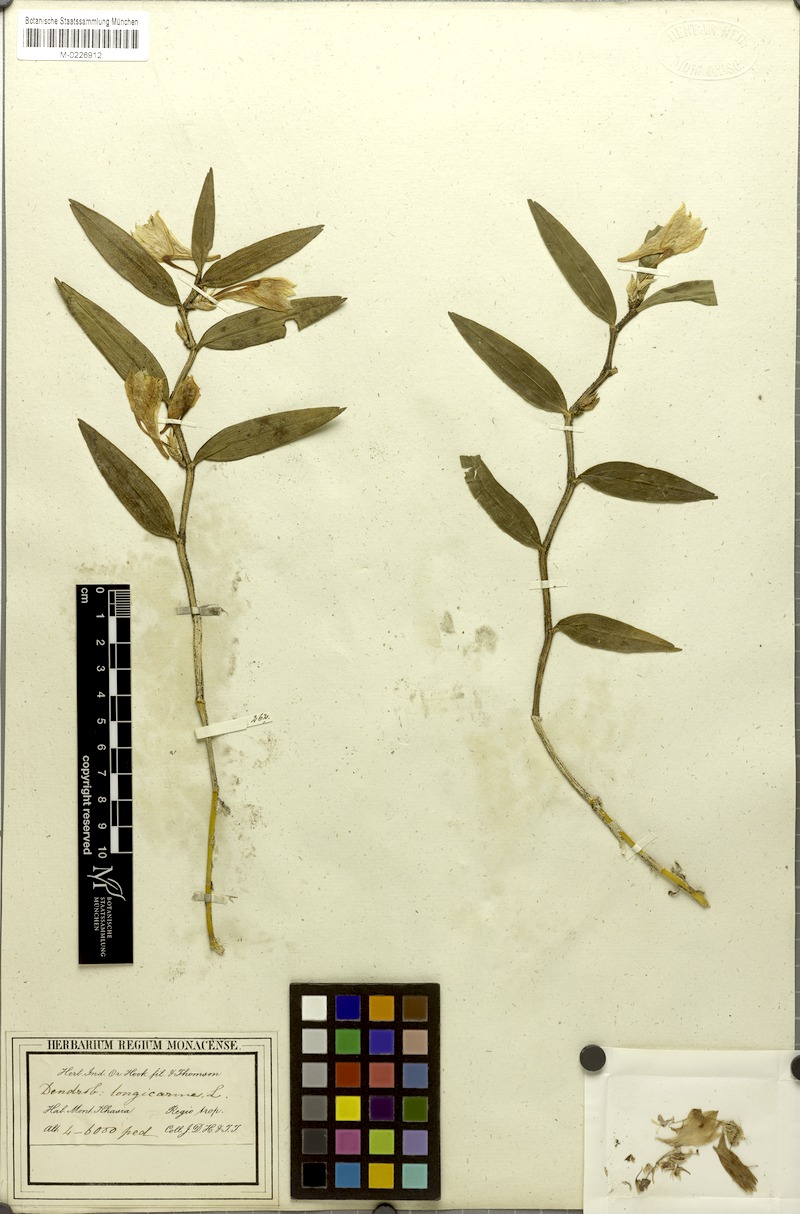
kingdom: Plantae
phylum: Tracheophyta
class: Liliopsida
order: Asparagales
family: Orchidaceae
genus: Dendrobium
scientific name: Dendrobium longicornu
